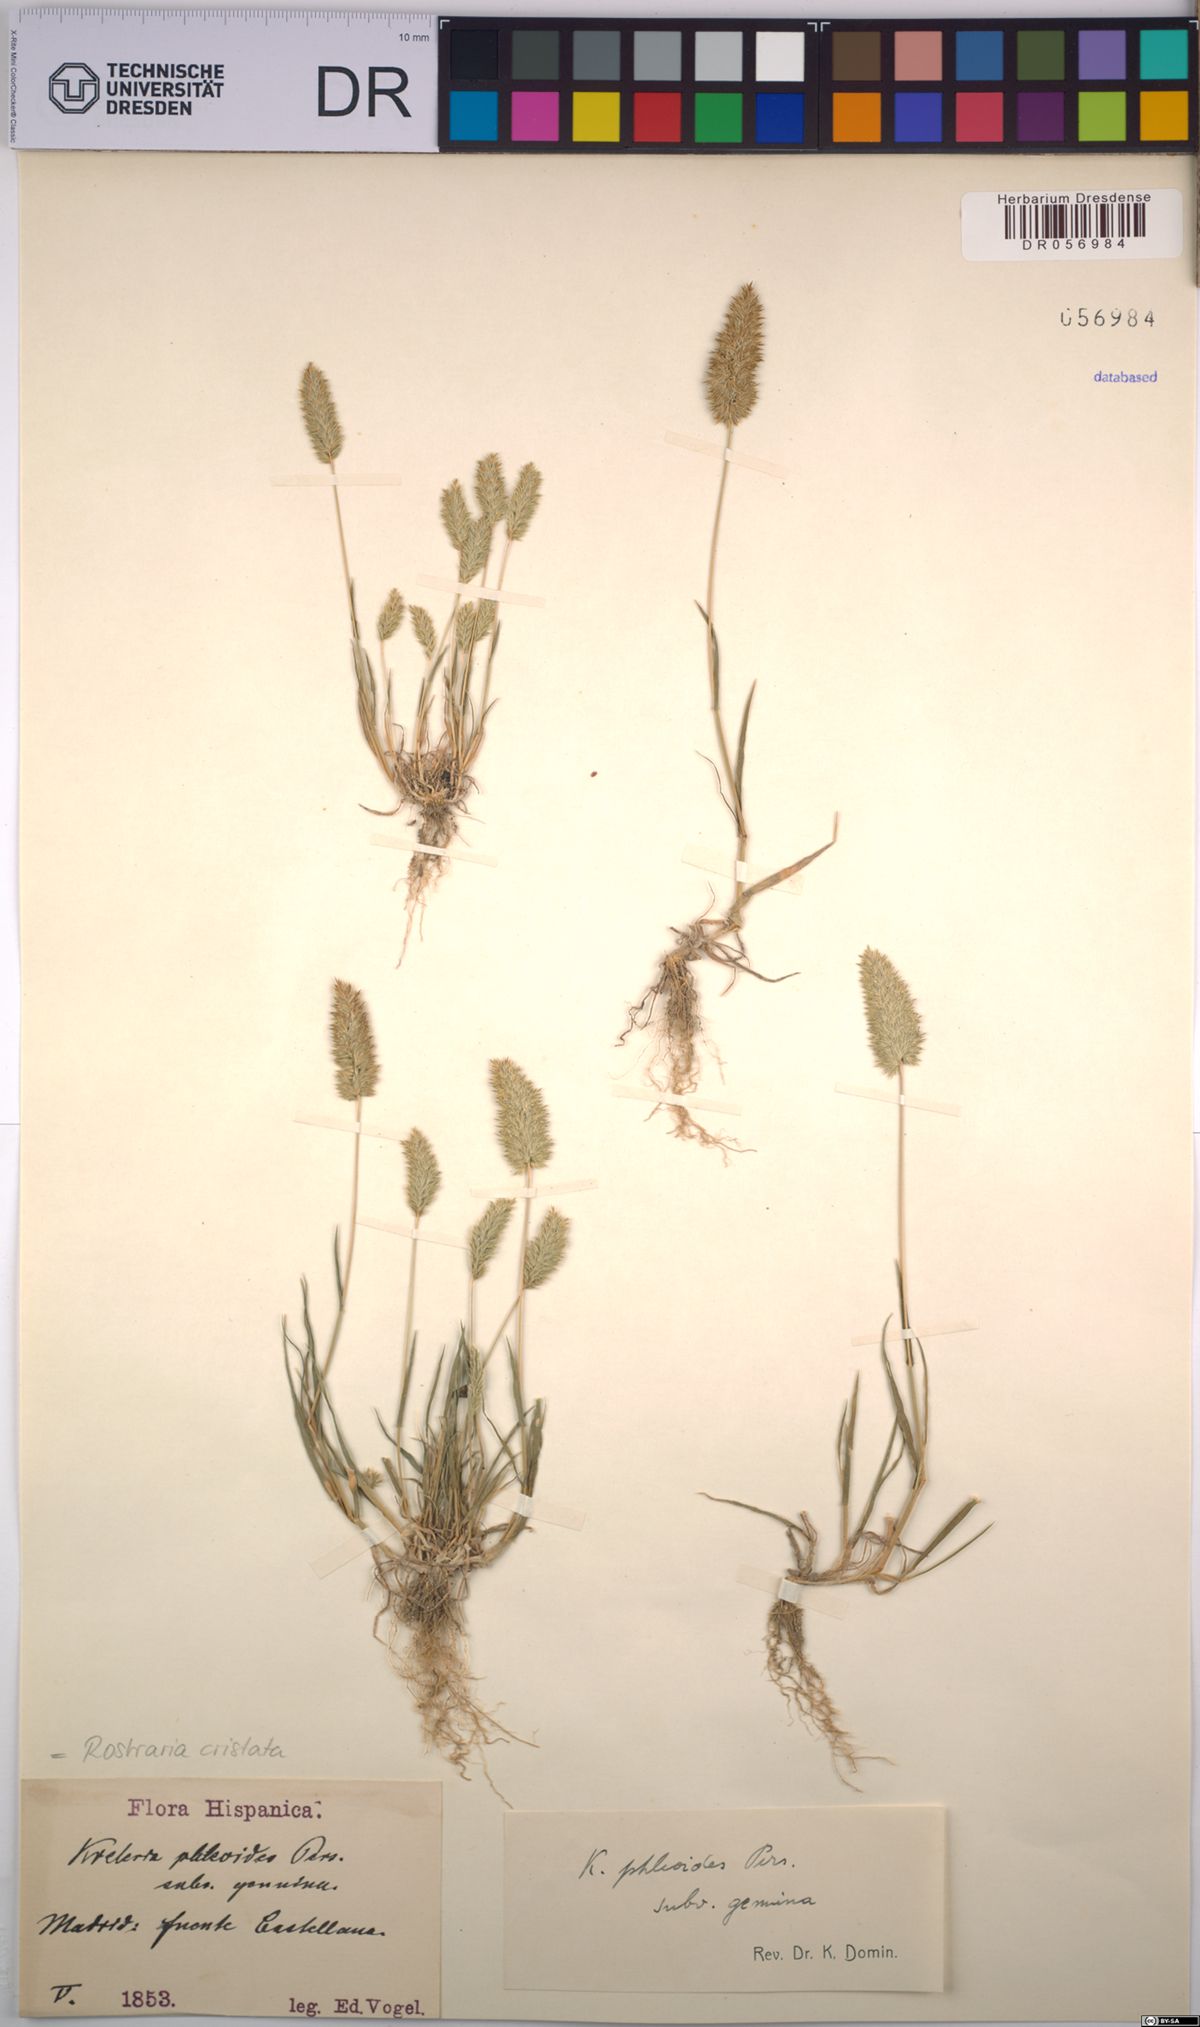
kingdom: Plantae
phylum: Tracheophyta
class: Liliopsida
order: Poales
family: Poaceae
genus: Rostraria
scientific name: Rostraria cristata
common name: Mediterranean hair-grass
